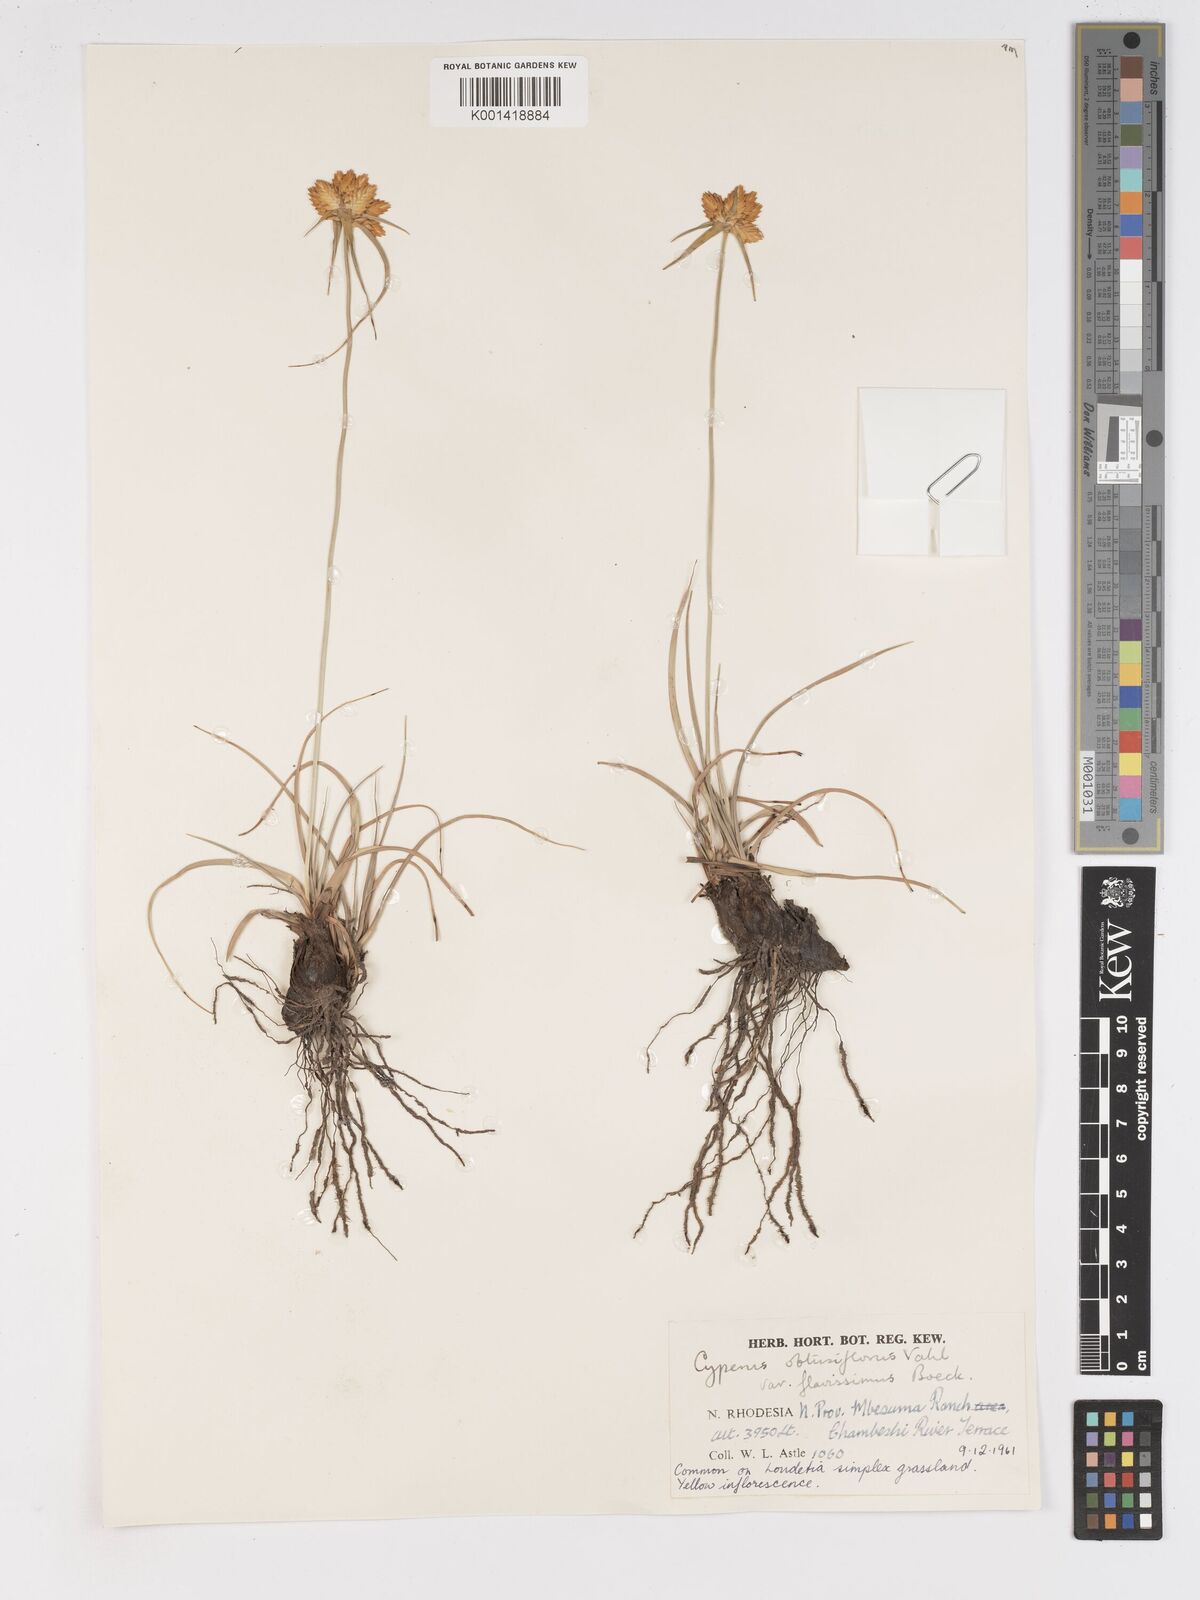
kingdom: Plantae
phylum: Tracheophyta
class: Liliopsida
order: Poales
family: Cyperaceae
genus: Cyperus
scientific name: Cyperus sphaerocephalus
